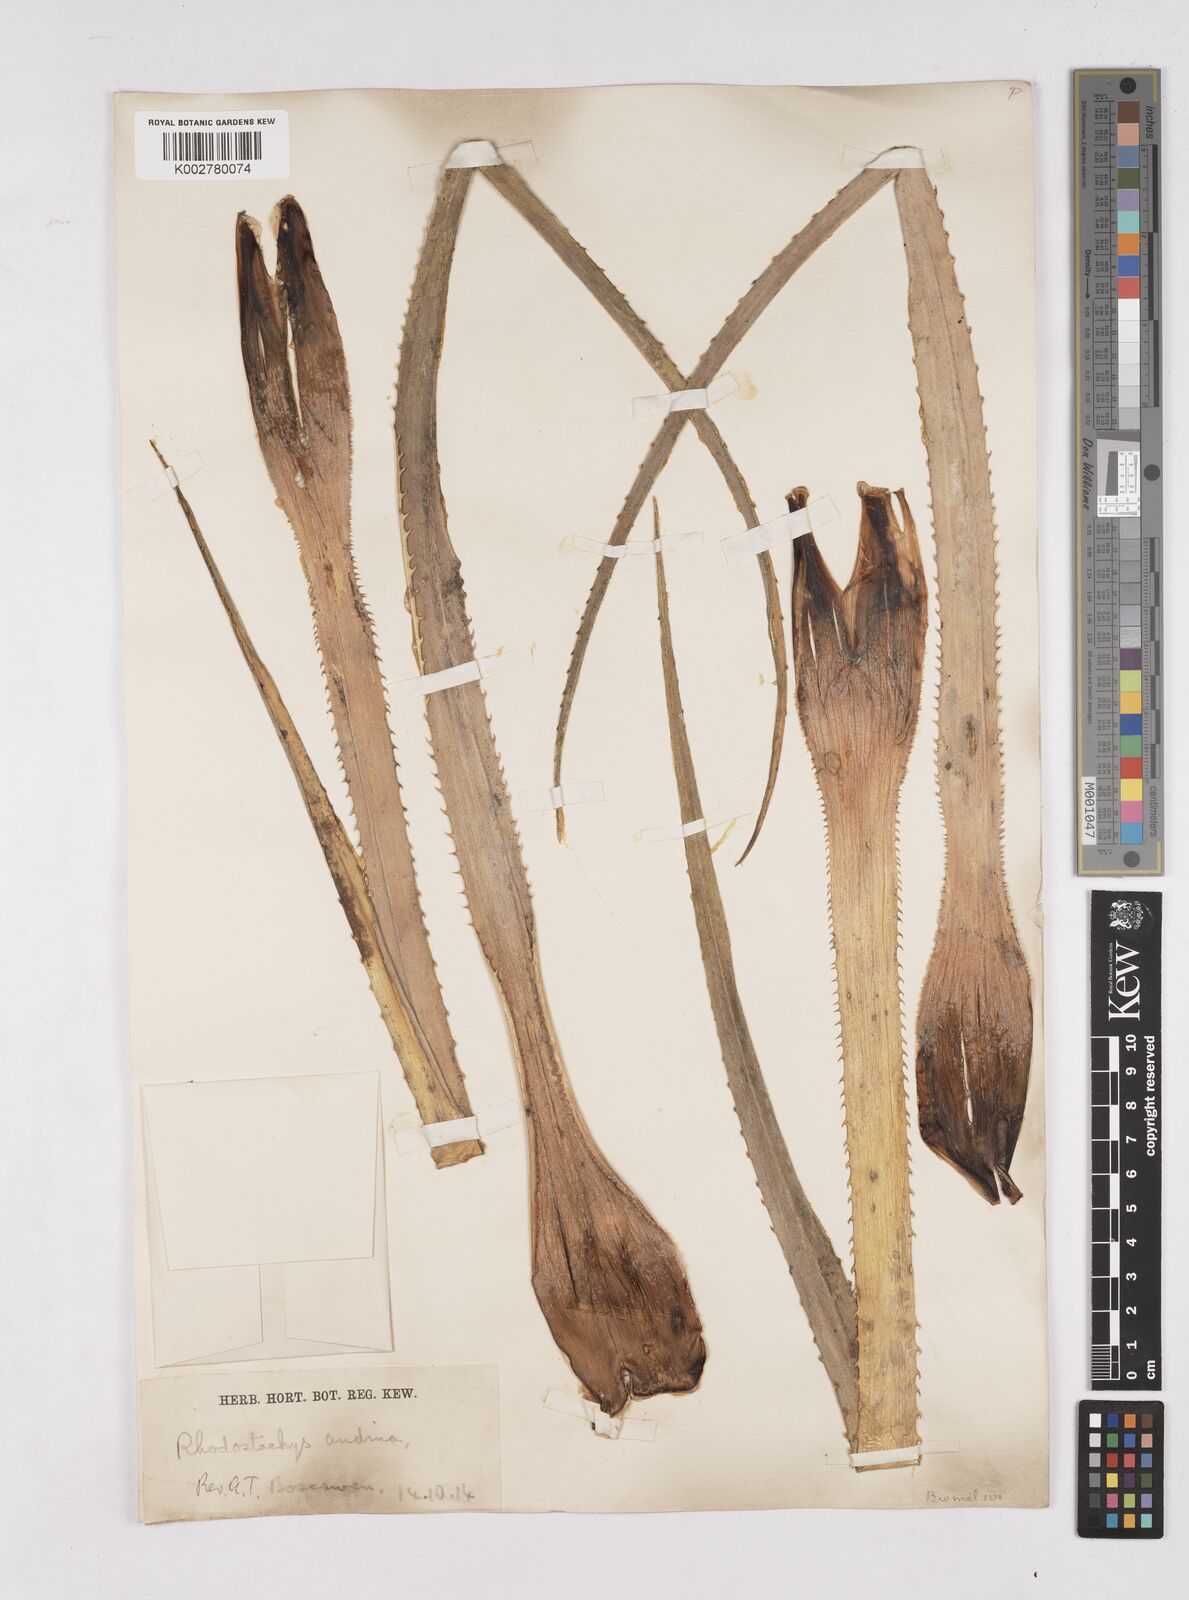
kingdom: Plantae
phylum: Tracheophyta
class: Liliopsida
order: Poales
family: Bromeliaceae
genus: Ochagavia
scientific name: Ochagavia carnea
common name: Tresco rhodostachys
